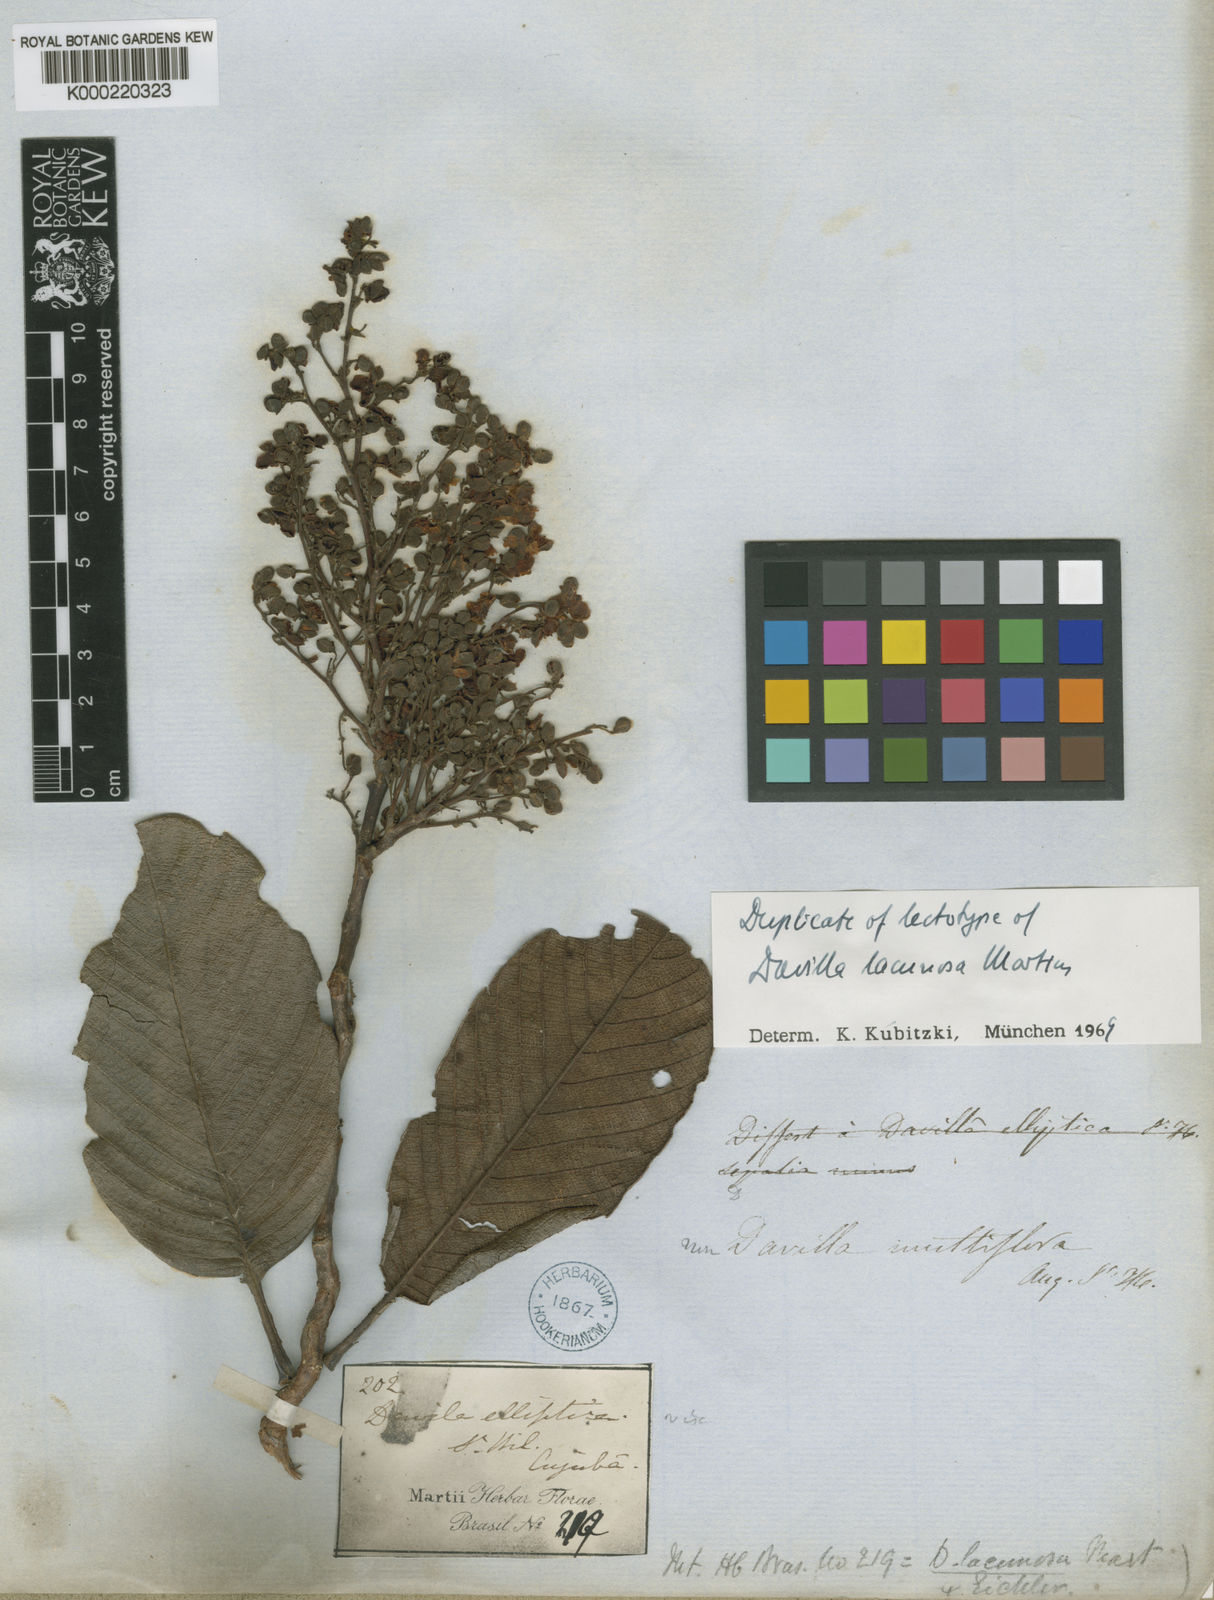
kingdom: Plantae
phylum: Tracheophyta
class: Magnoliopsida
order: Dilleniales
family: Dilleniaceae
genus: Davilla
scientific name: Davilla lacunosa
